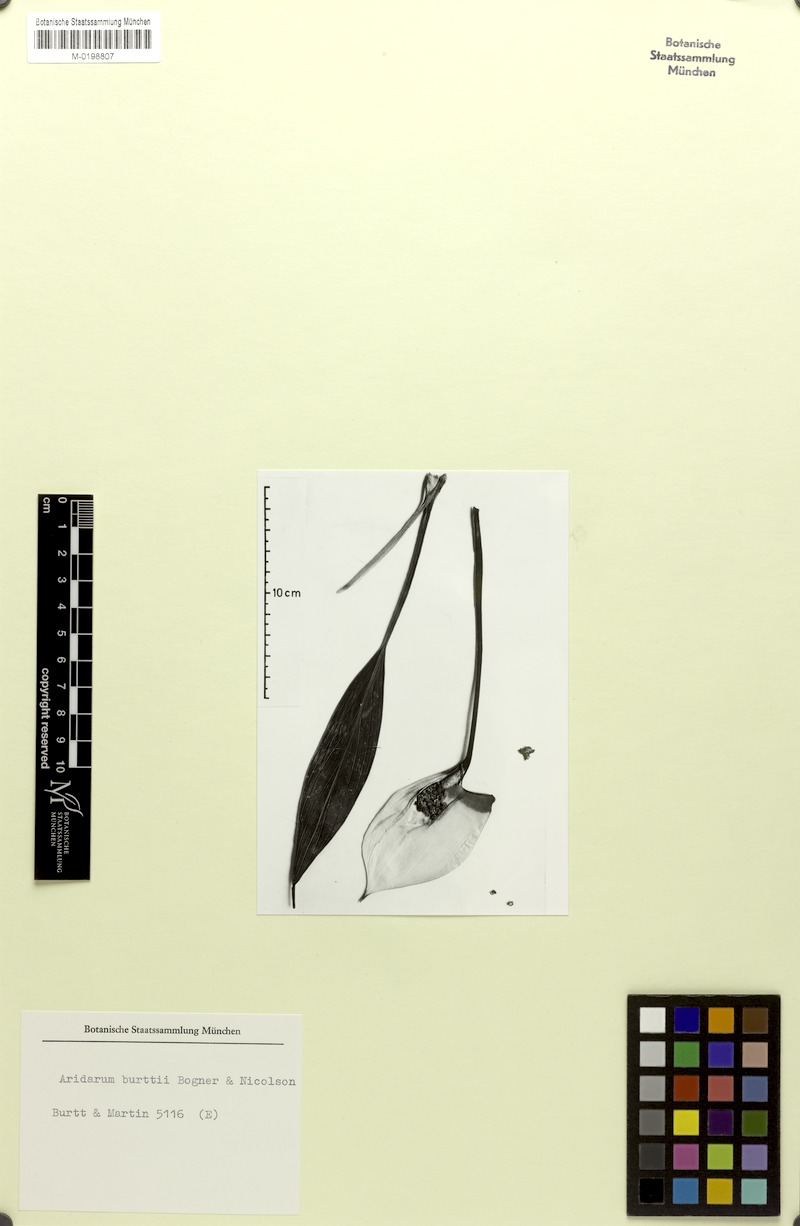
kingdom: Plantae
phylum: Tracheophyta
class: Liliopsida
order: Alismatales
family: Araceae
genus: Pursegloveia
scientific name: Pursegloveia burttii
